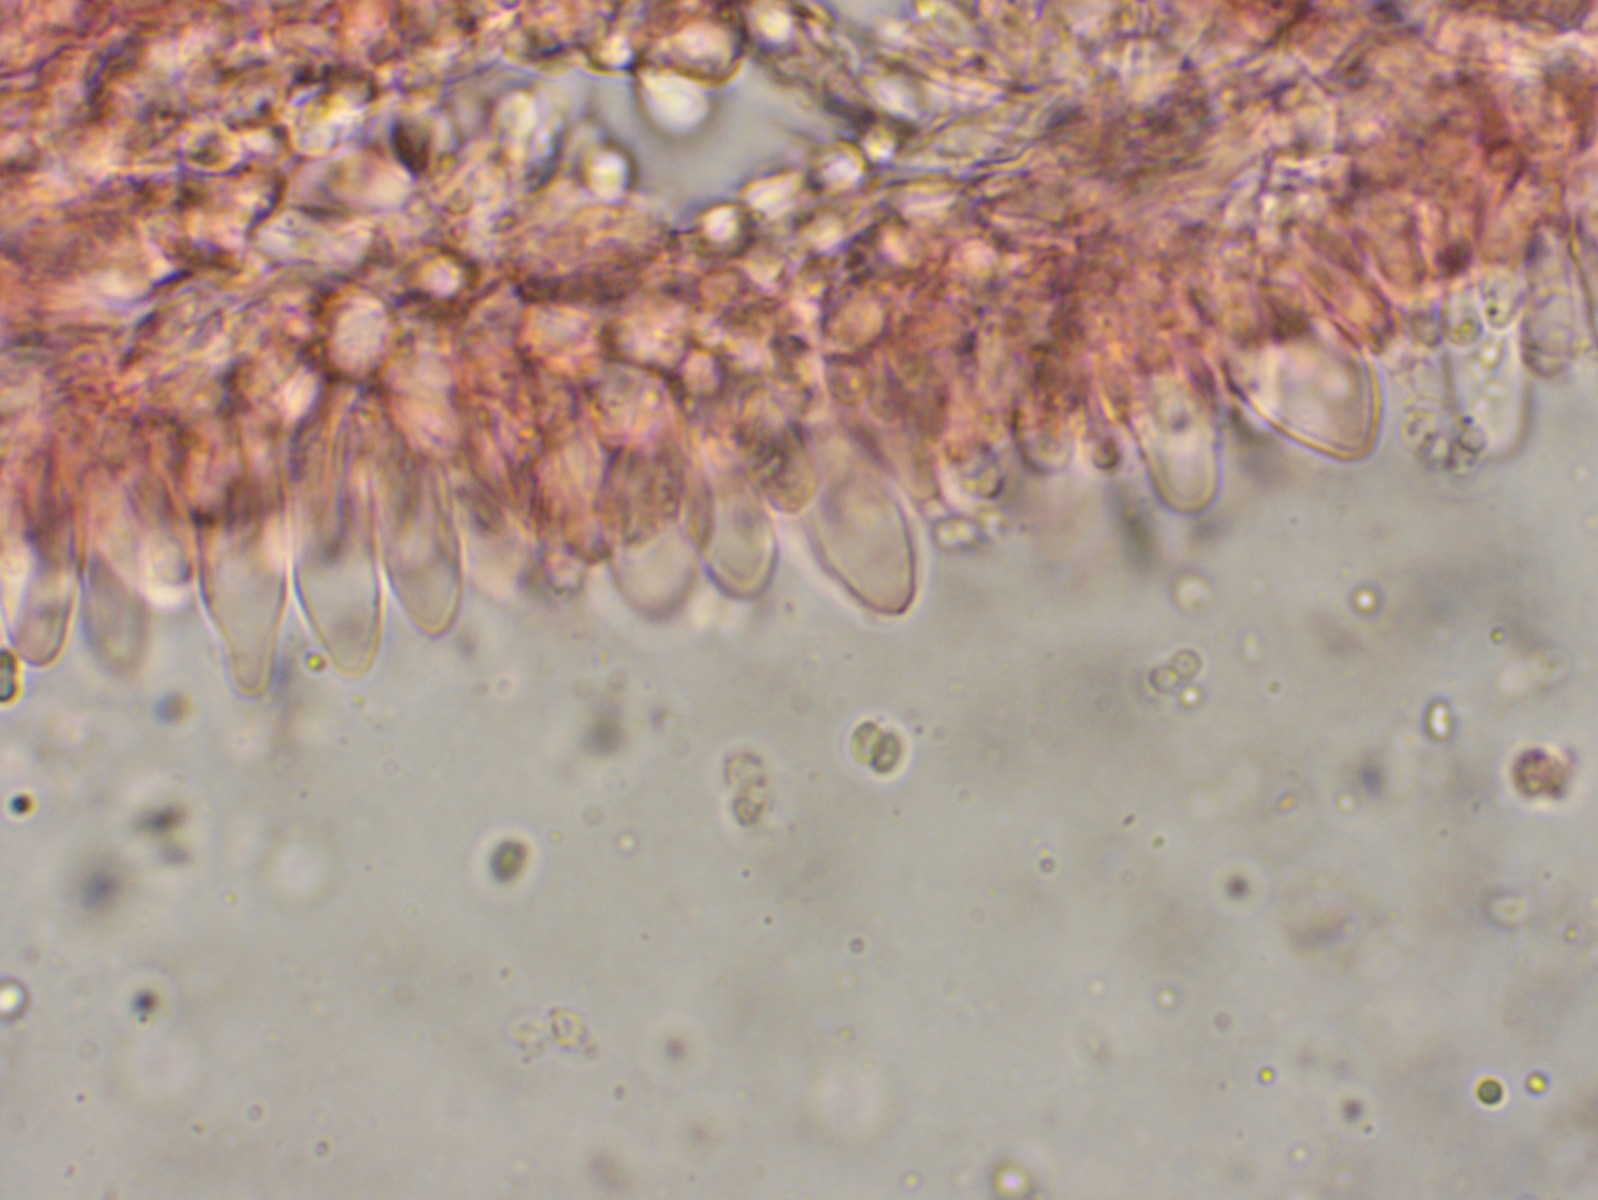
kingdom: Fungi
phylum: Basidiomycota
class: Agaricomycetes
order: Agaricales
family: Marasmiaceae
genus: Baeospora
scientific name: Baeospora myosura
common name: koglebruskhat
